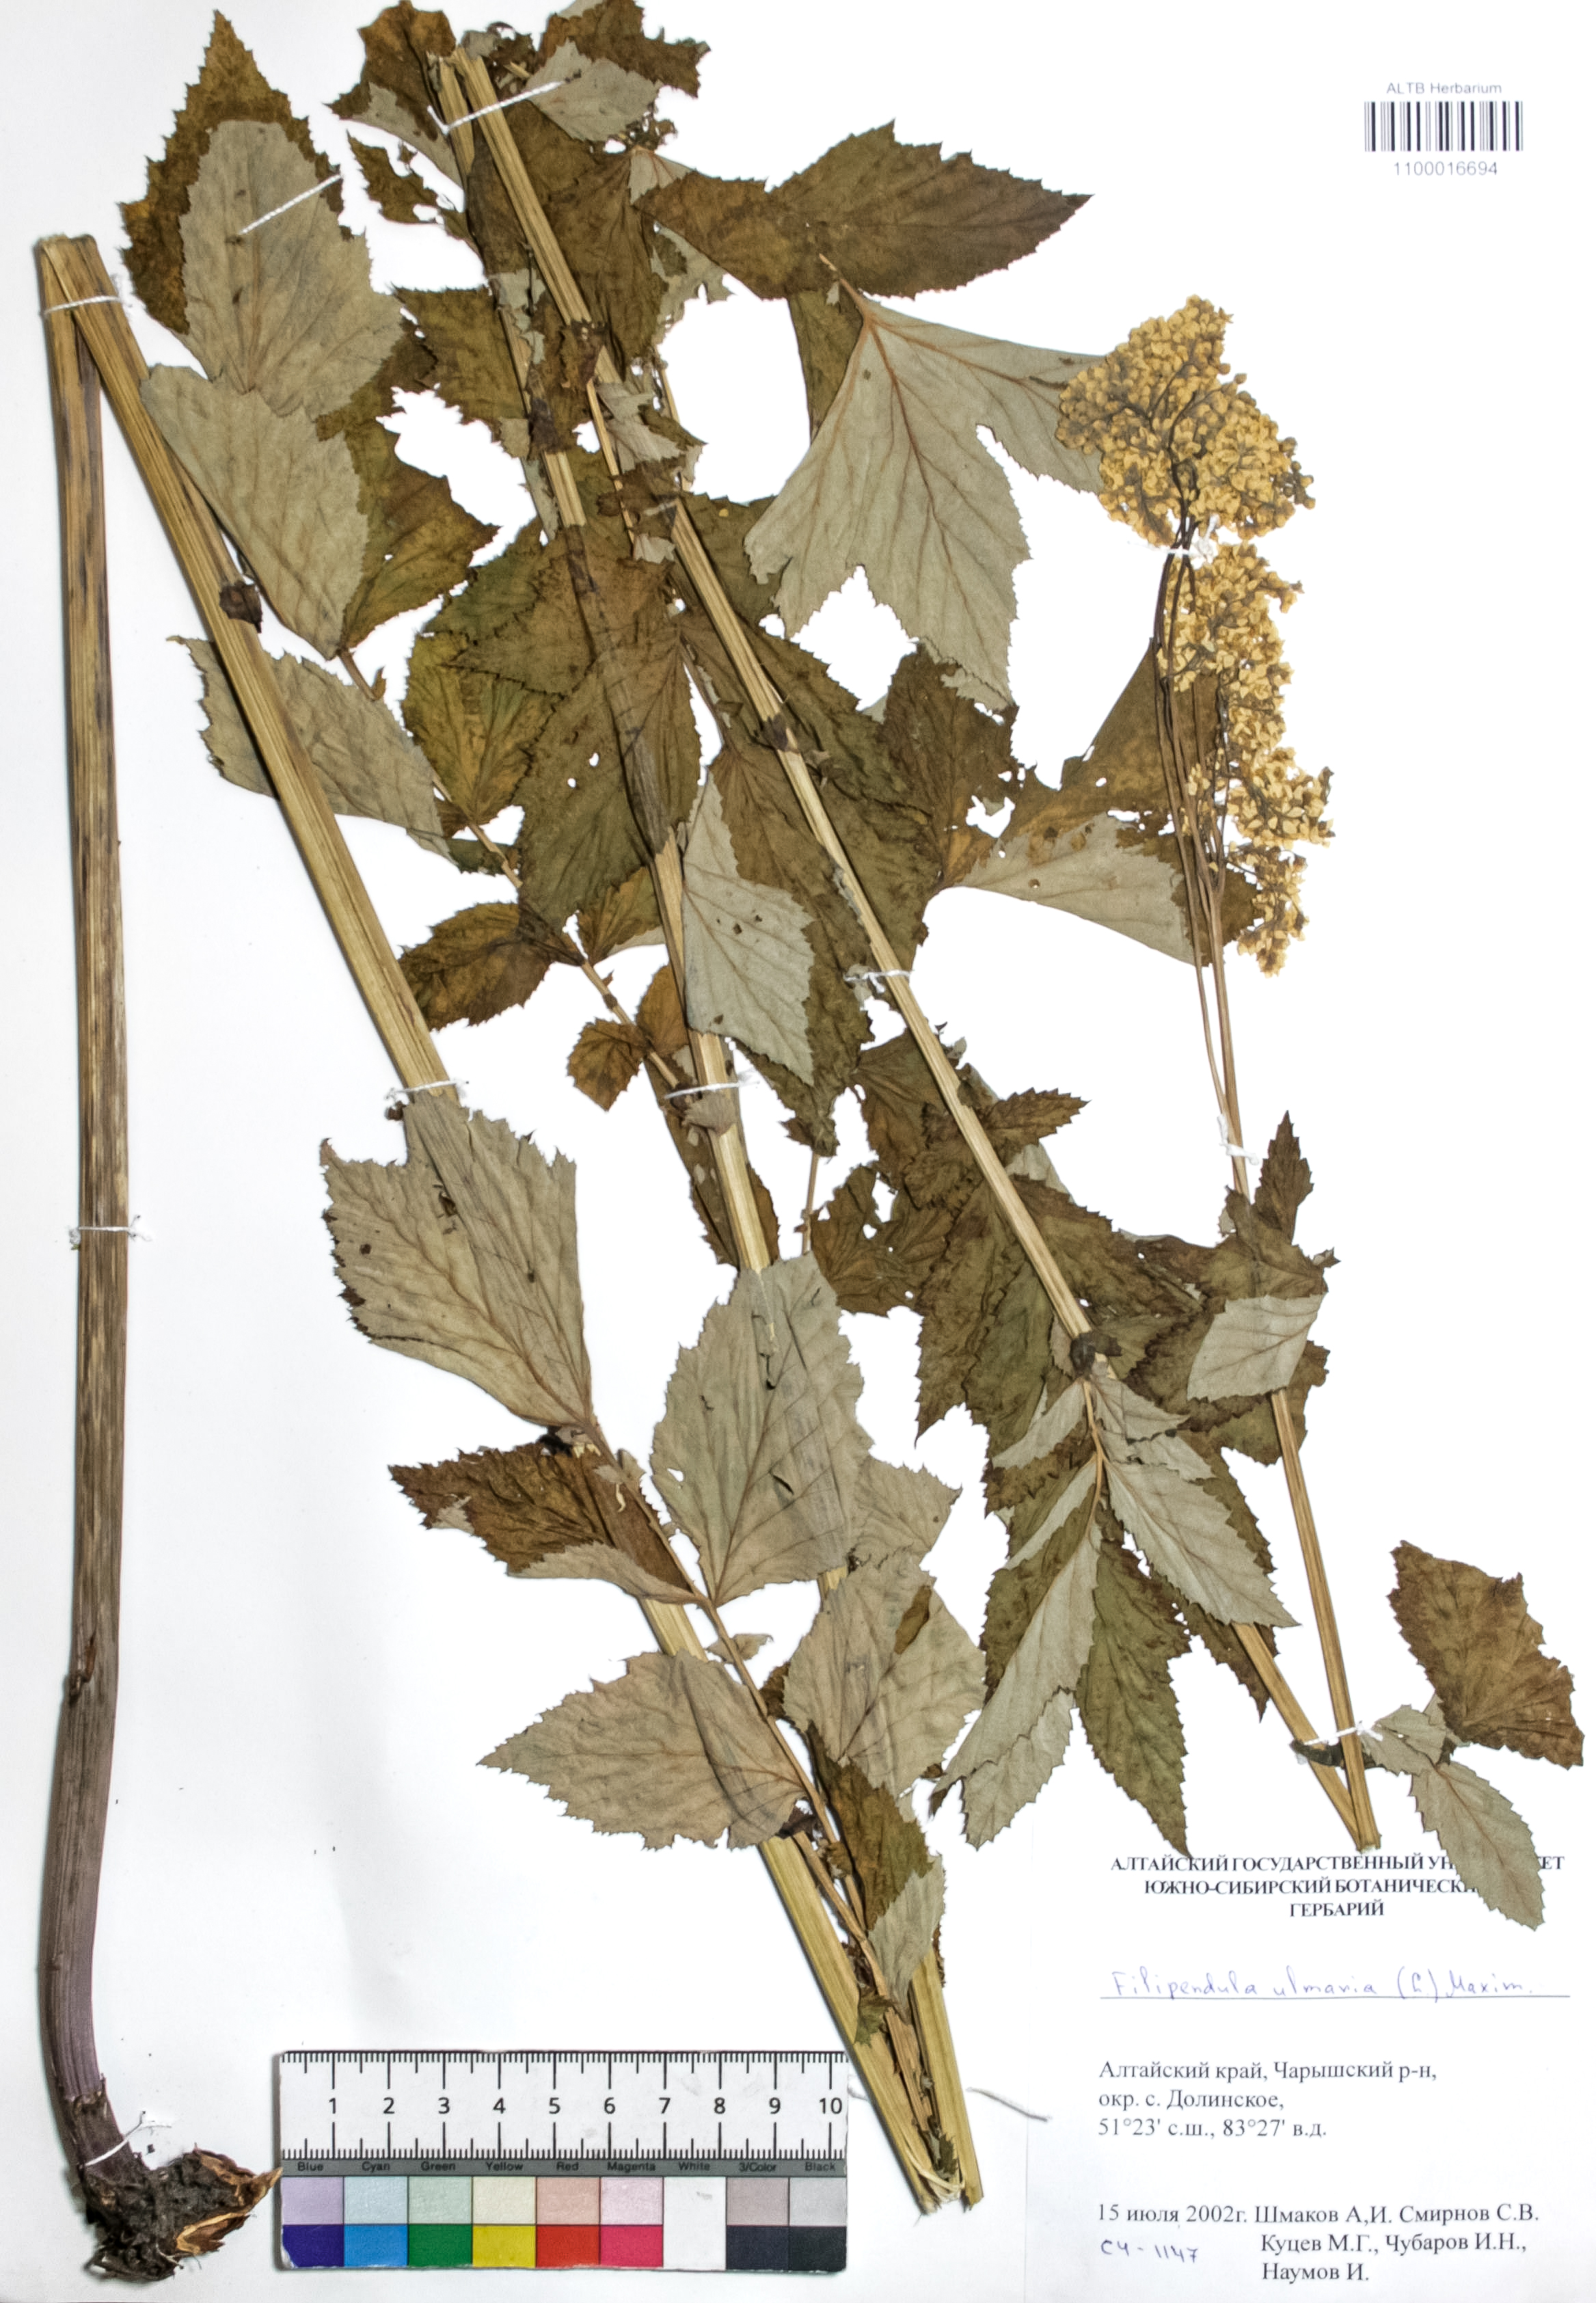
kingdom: Plantae
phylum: Tracheophyta
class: Magnoliopsida
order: Rosales
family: Rosaceae
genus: Filipendula
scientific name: Filipendula ulmaria
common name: Meadowsweet
